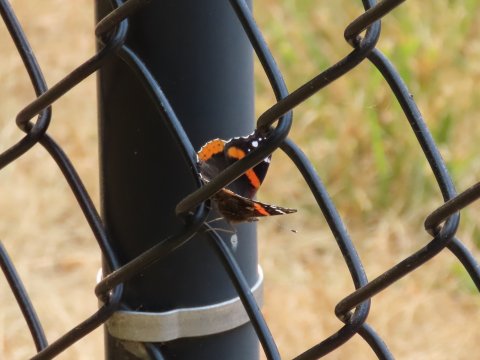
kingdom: Animalia
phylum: Arthropoda
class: Insecta
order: Lepidoptera
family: Nymphalidae
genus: Vanessa
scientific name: Vanessa atalanta
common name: Red Admiral
